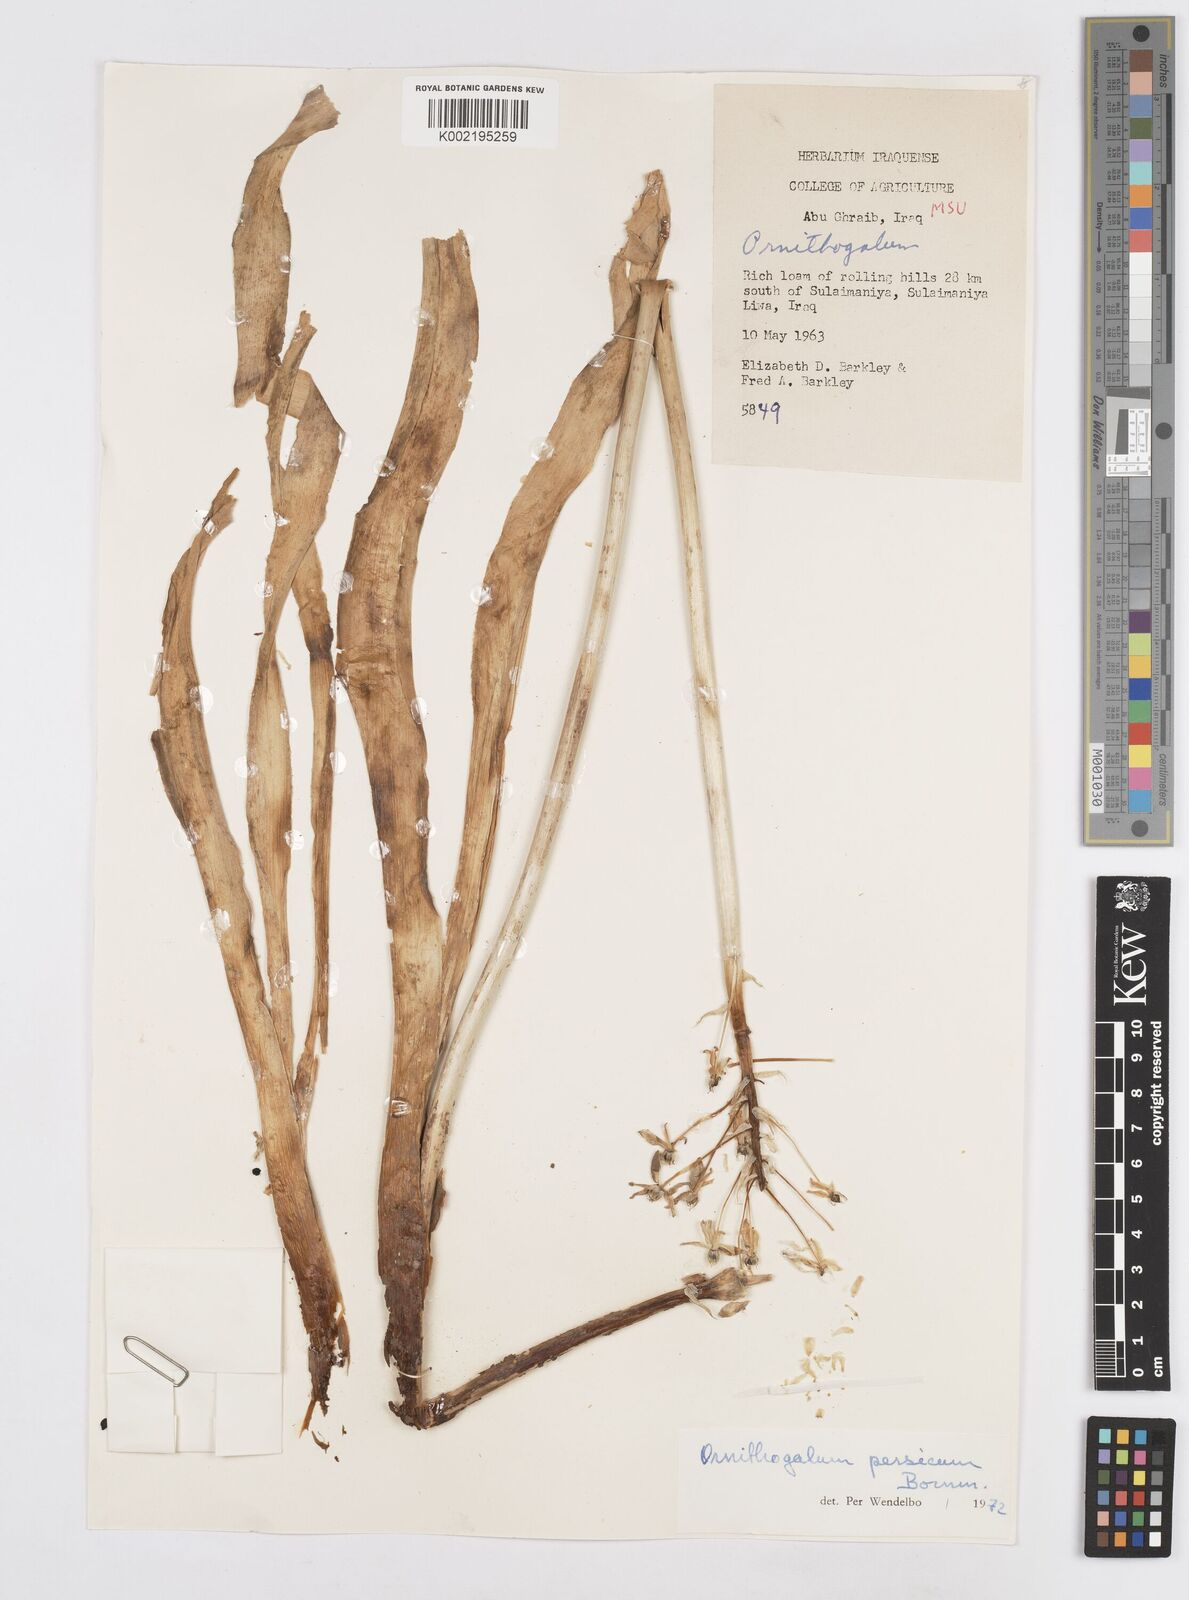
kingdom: Plantae
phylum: Tracheophyta
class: Liliopsida
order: Asparagales
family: Asparagaceae
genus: Ornithogalum
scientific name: Ornithogalum persicum
